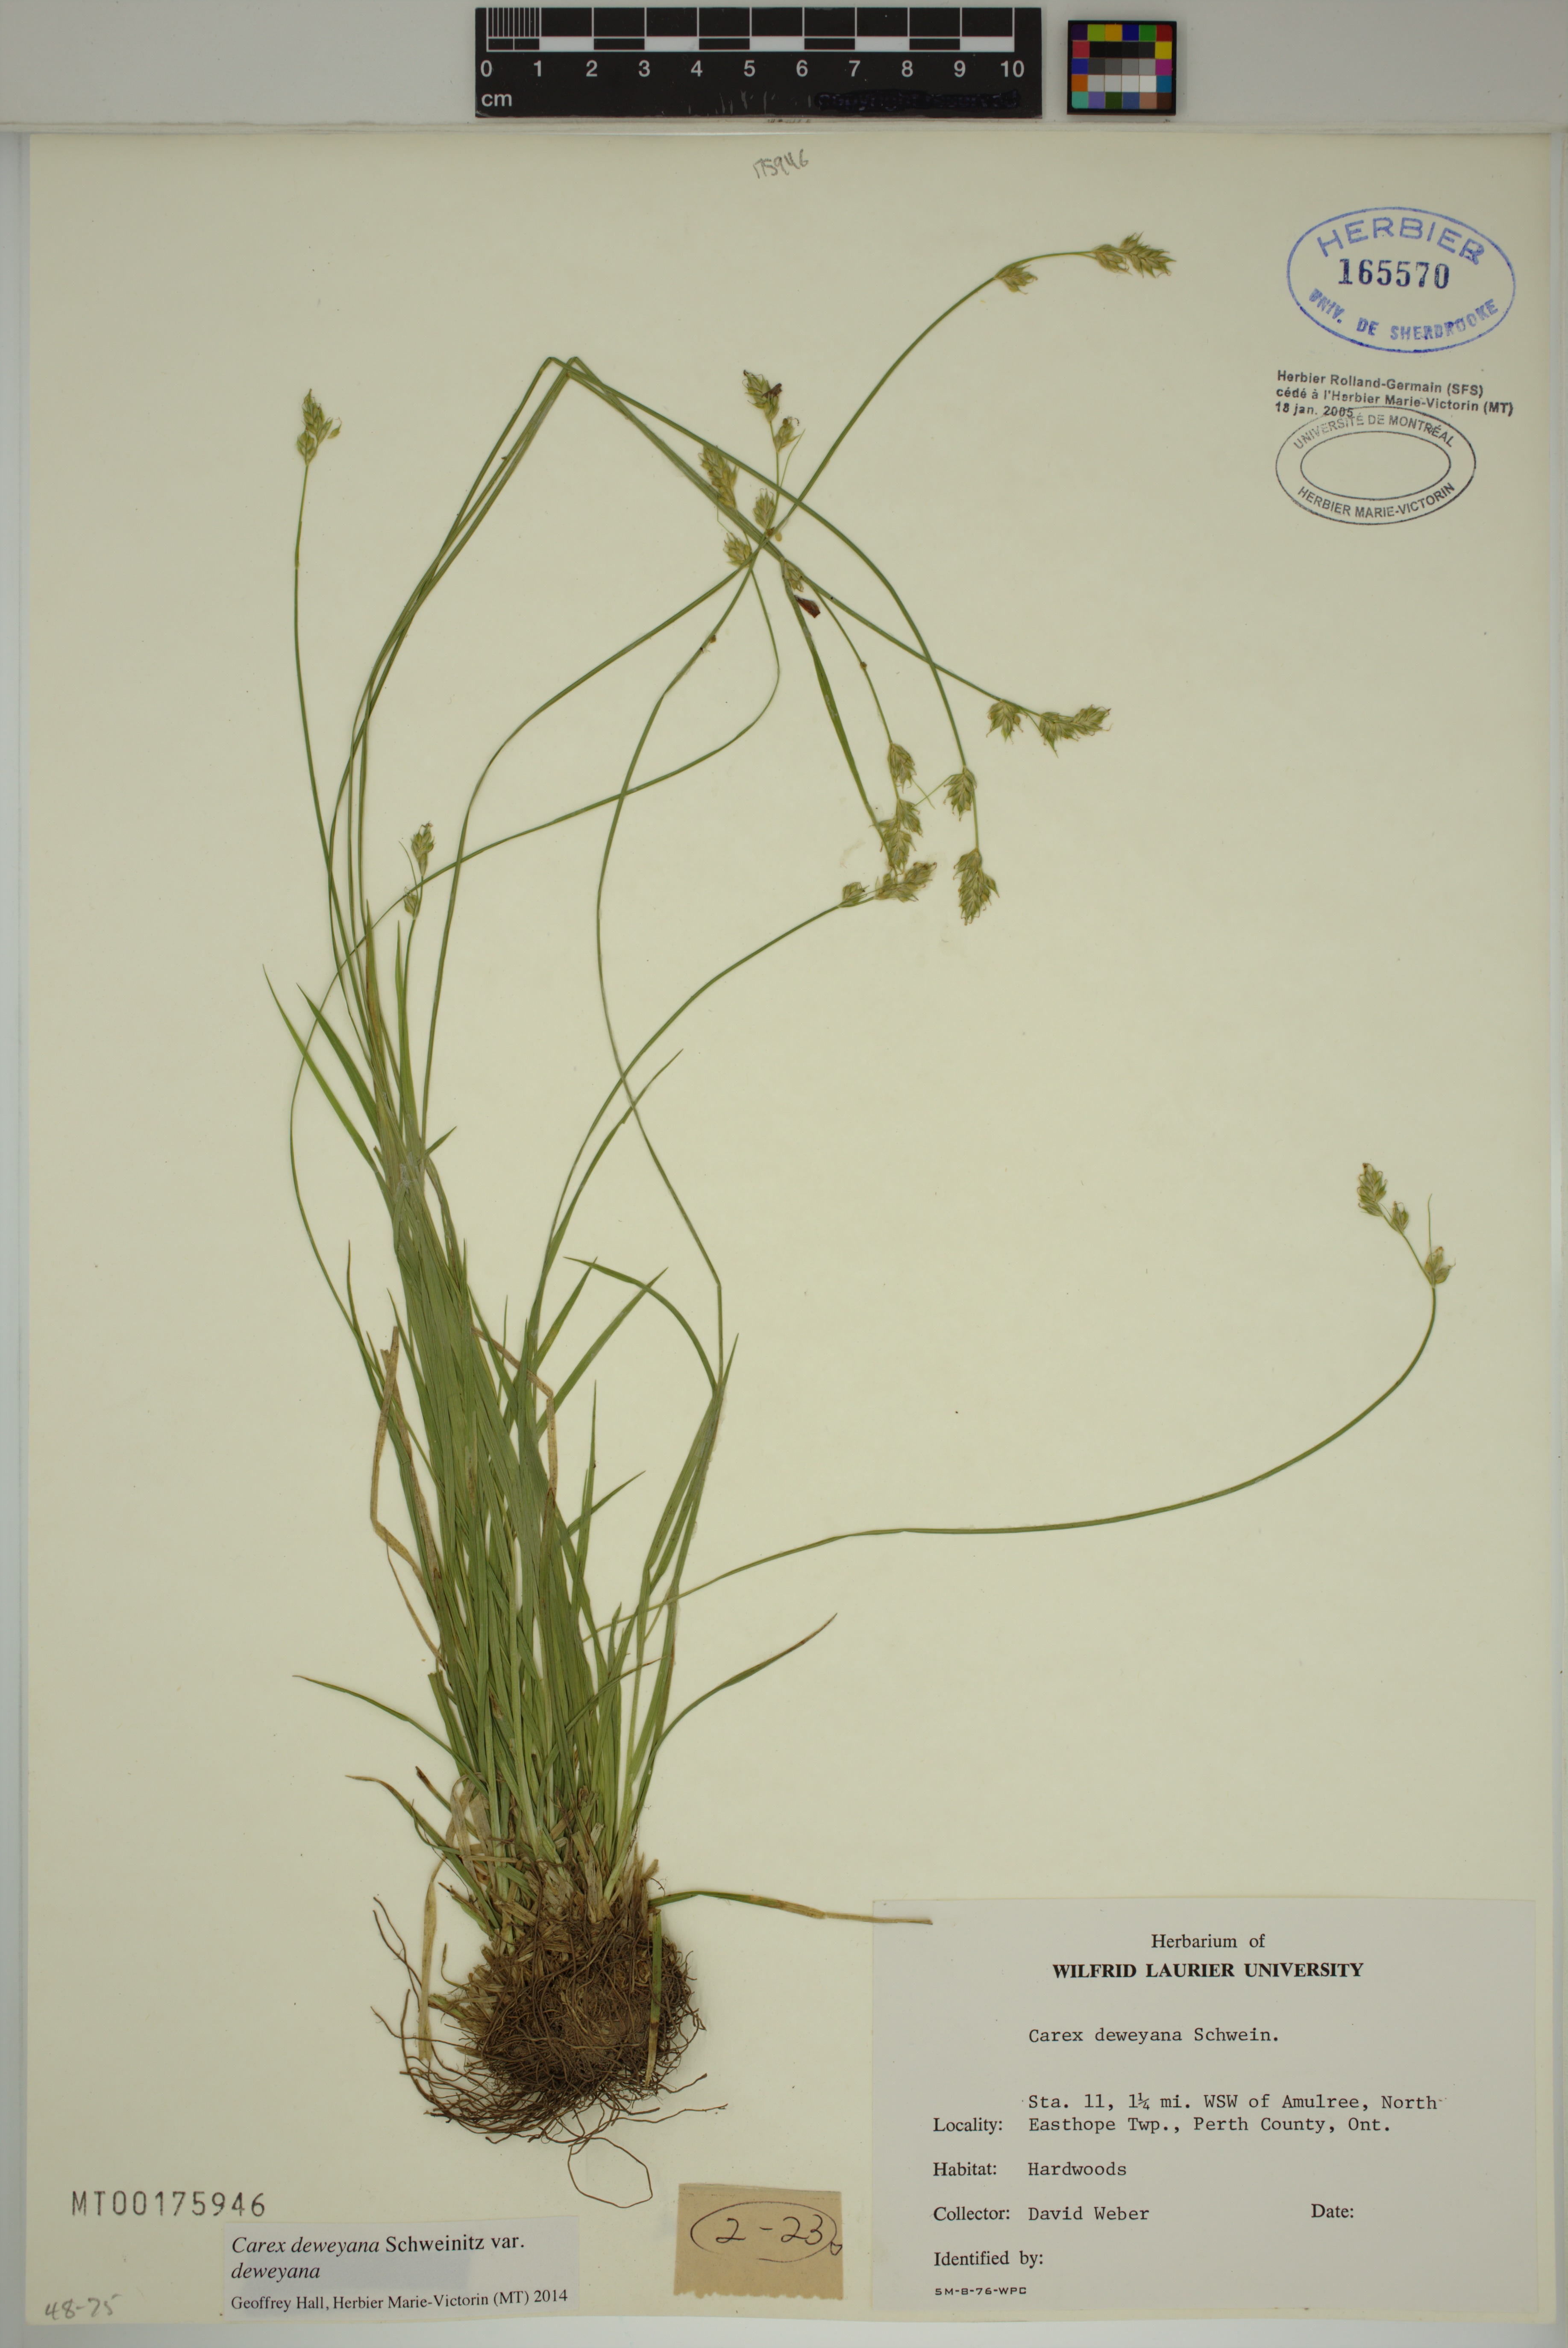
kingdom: Plantae
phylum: Tracheophyta
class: Liliopsida
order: Poales
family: Cyperaceae
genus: Carex
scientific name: Carex deweyana
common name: Dewey's sedge
